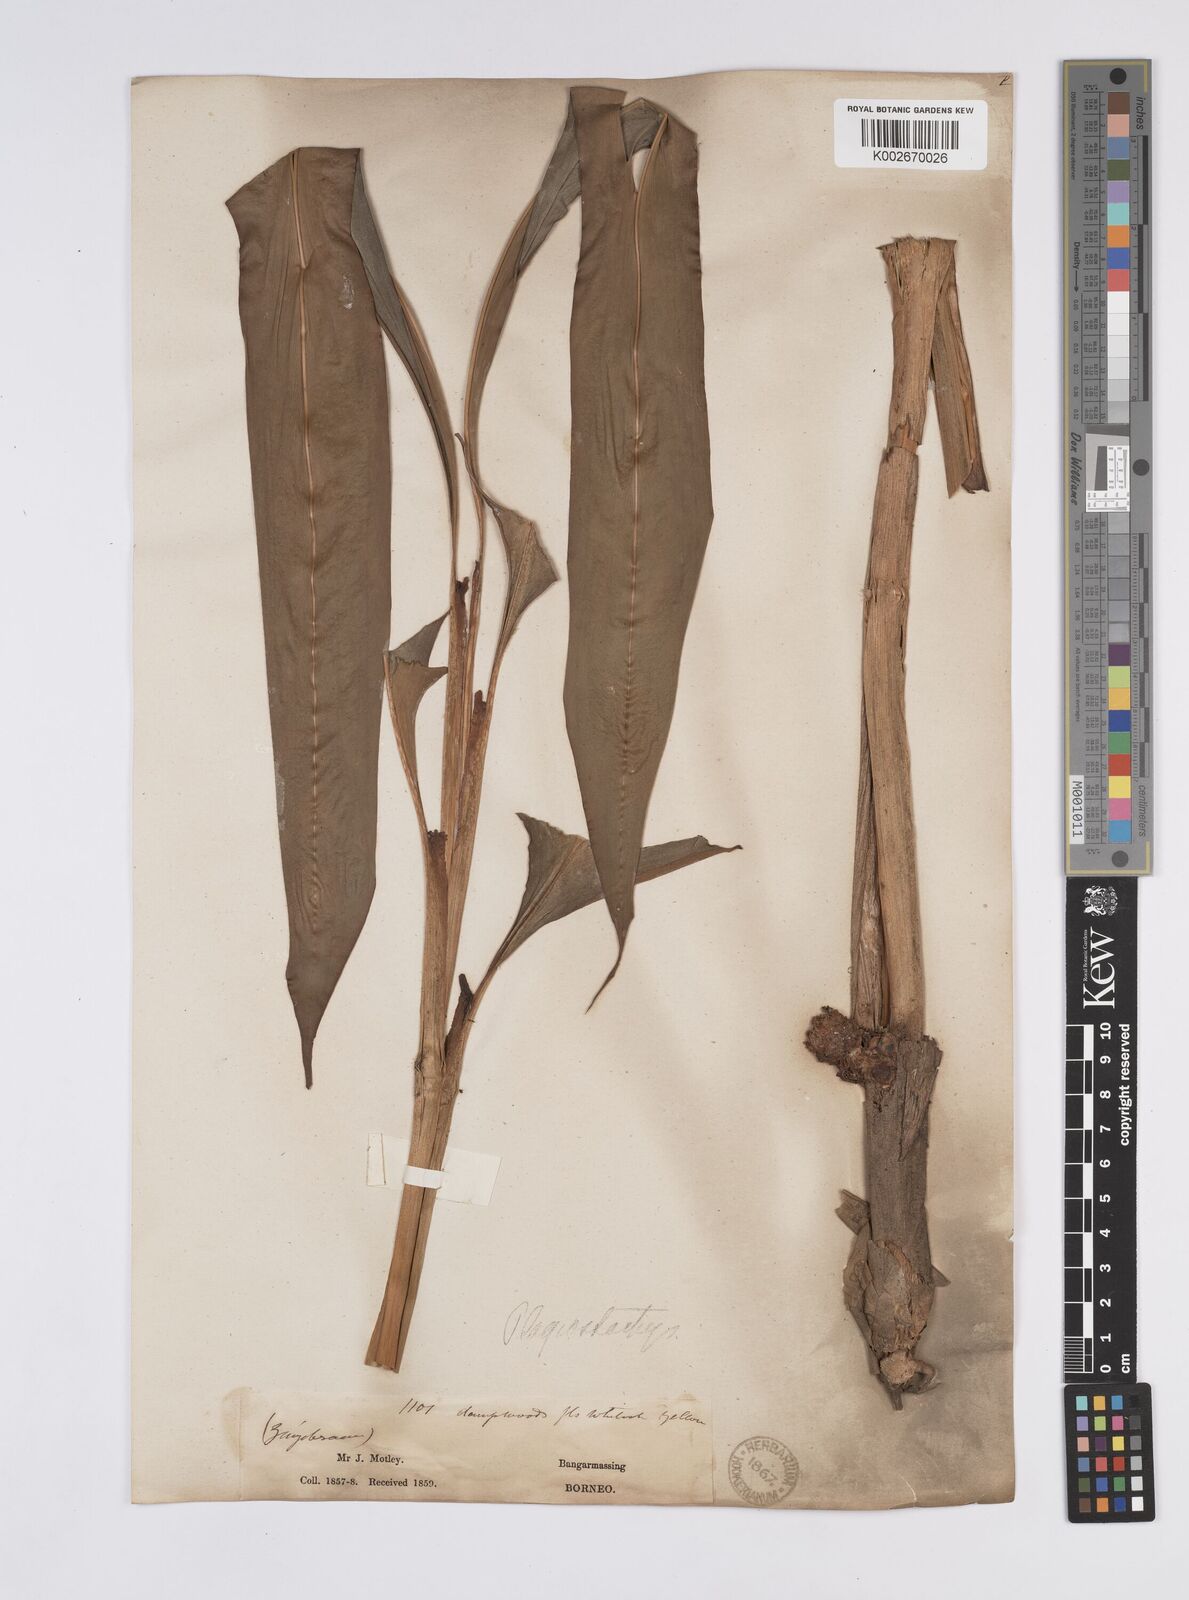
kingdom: Plantae
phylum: Tracheophyta
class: Liliopsida
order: Zingiberales
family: Zingiberaceae
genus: Plagiostachys
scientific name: Plagiostachys
